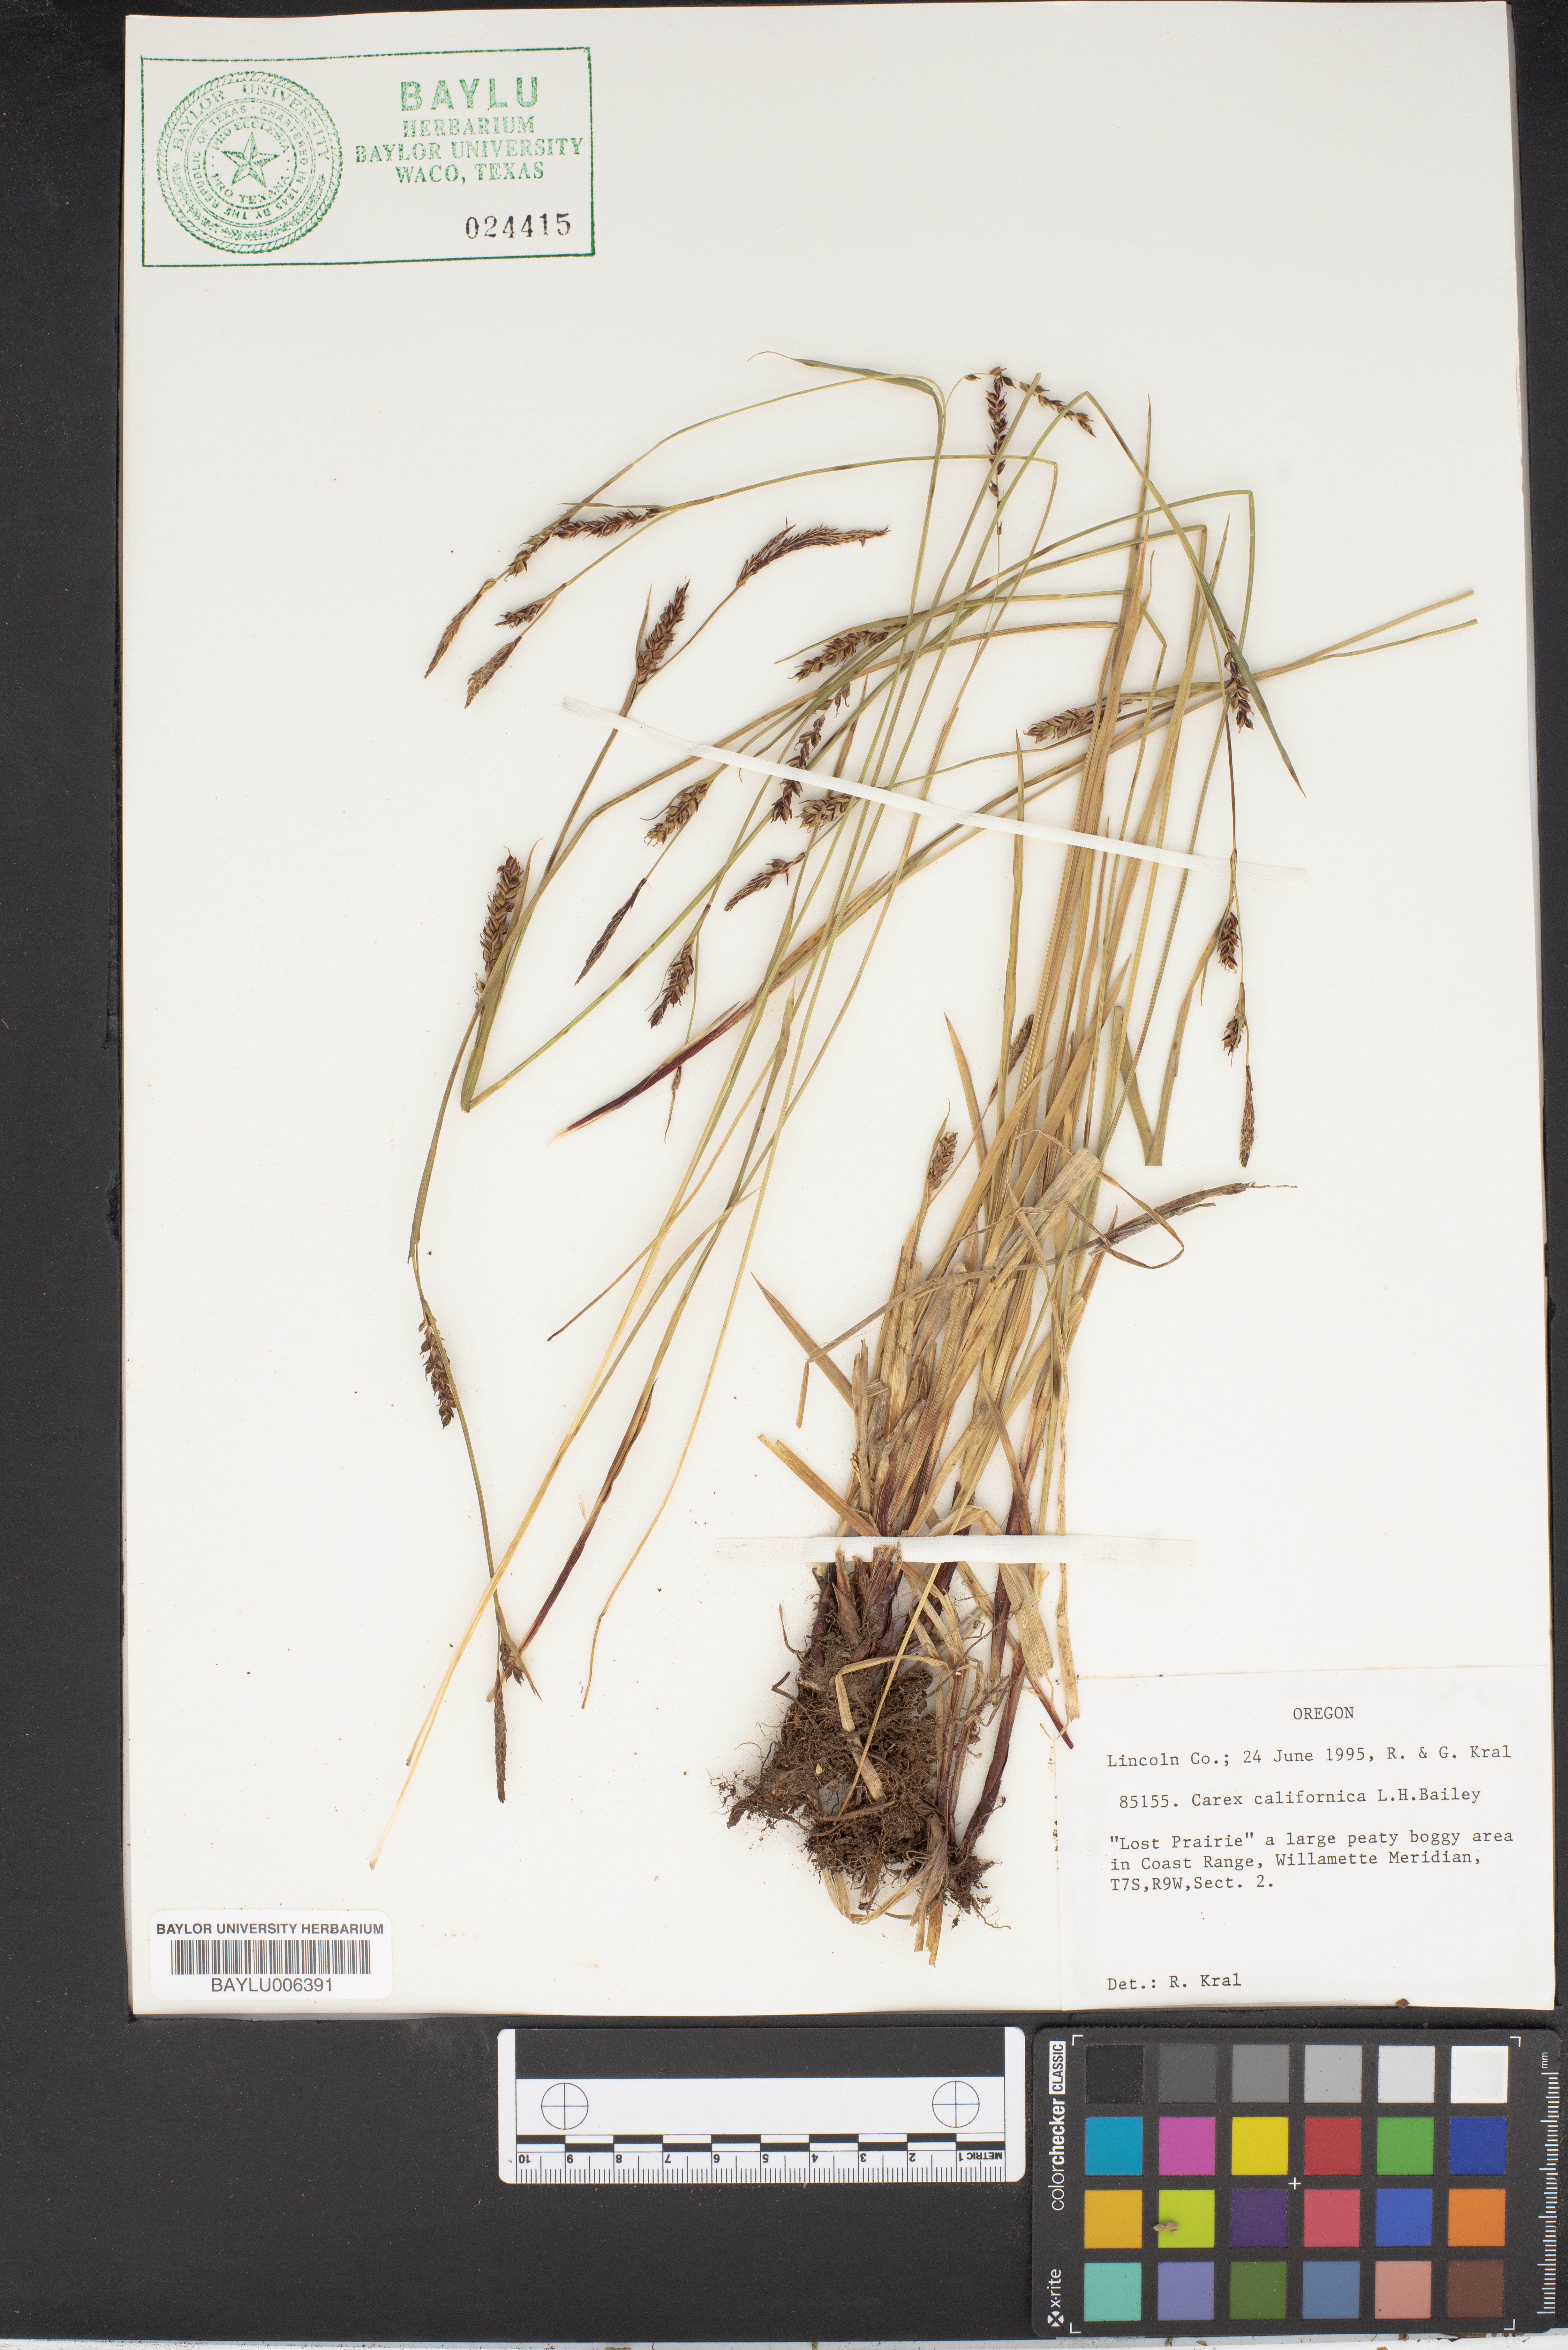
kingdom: Plantae
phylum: Tracheophyta
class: Liliopsida
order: Poales
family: Cyperaceae
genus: Carex
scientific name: Carex californica
